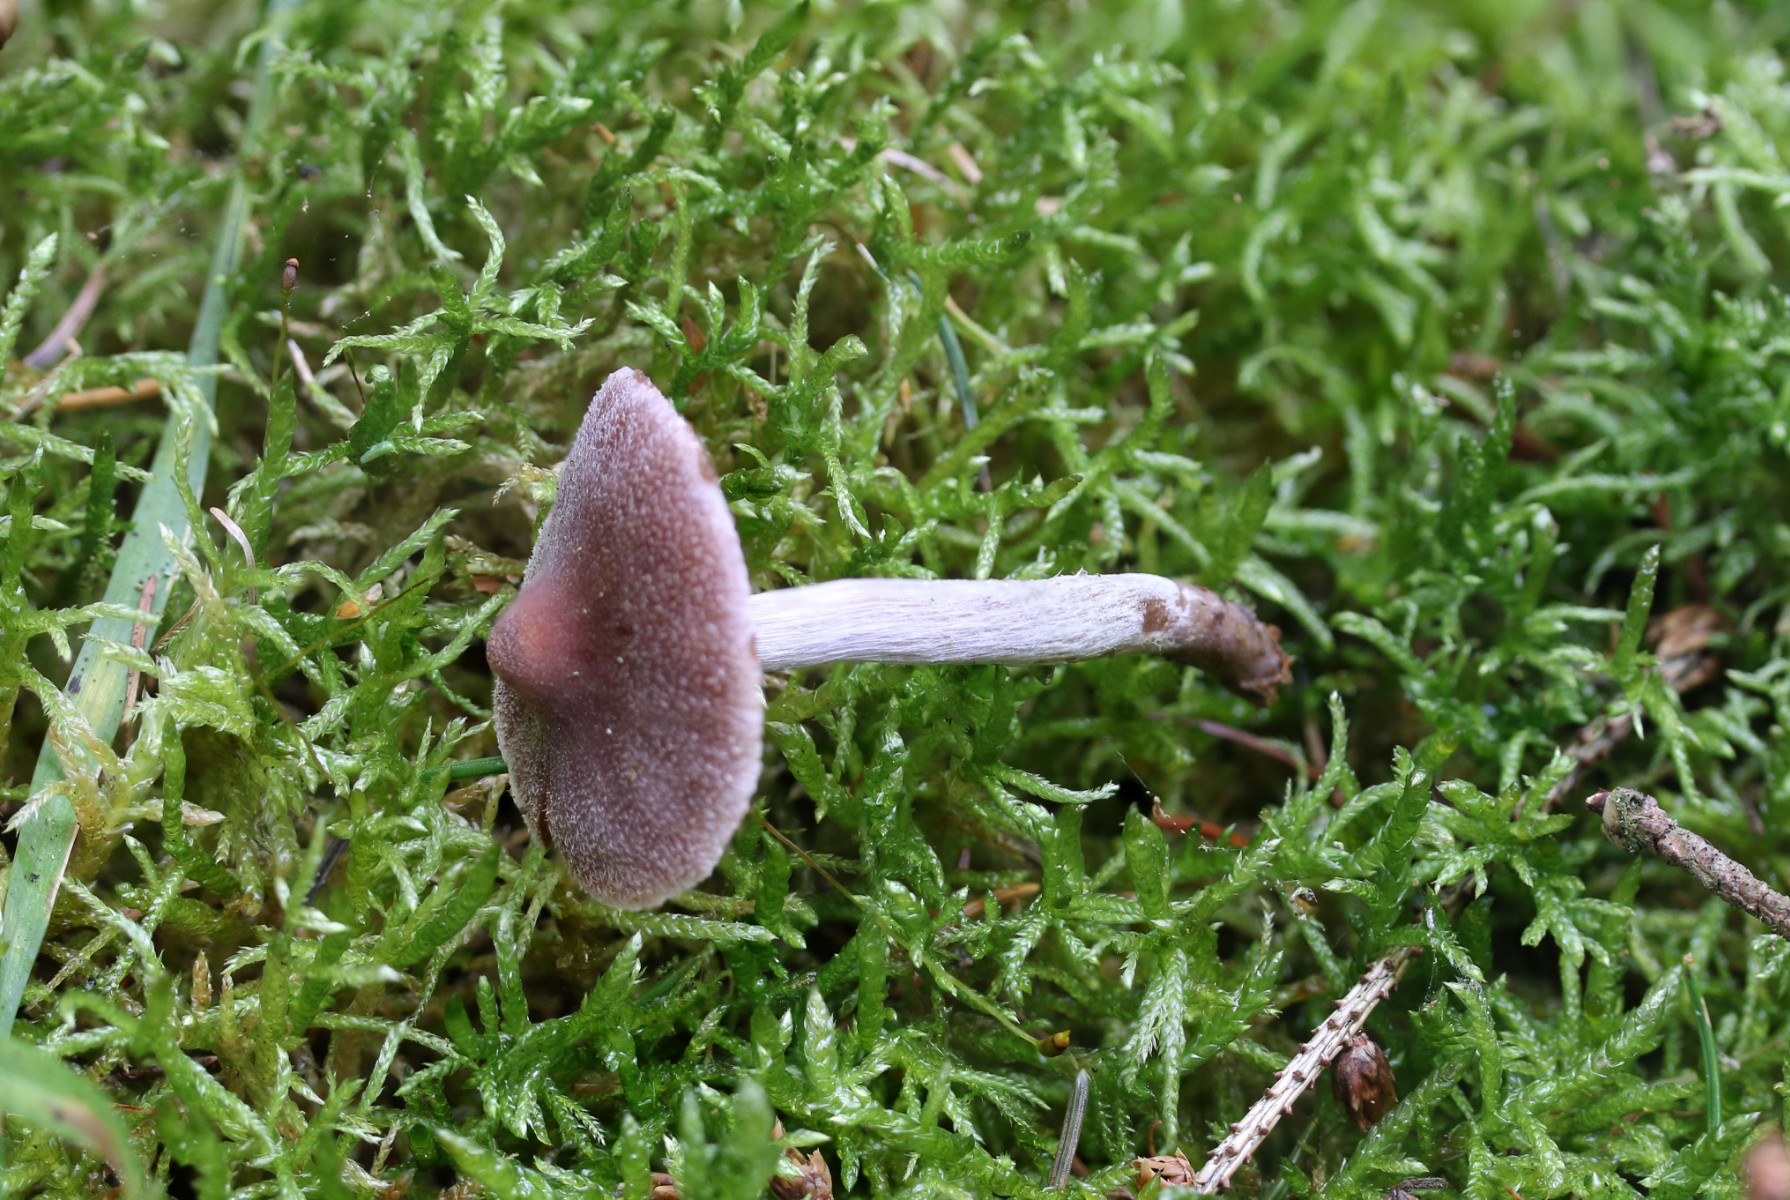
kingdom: Fungi
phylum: Basidiomycota
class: Agaricomycetes
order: Agaricales
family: Cortinariaceae
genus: Cortinarius
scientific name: Cortinarius
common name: pelargonie-slørhat
